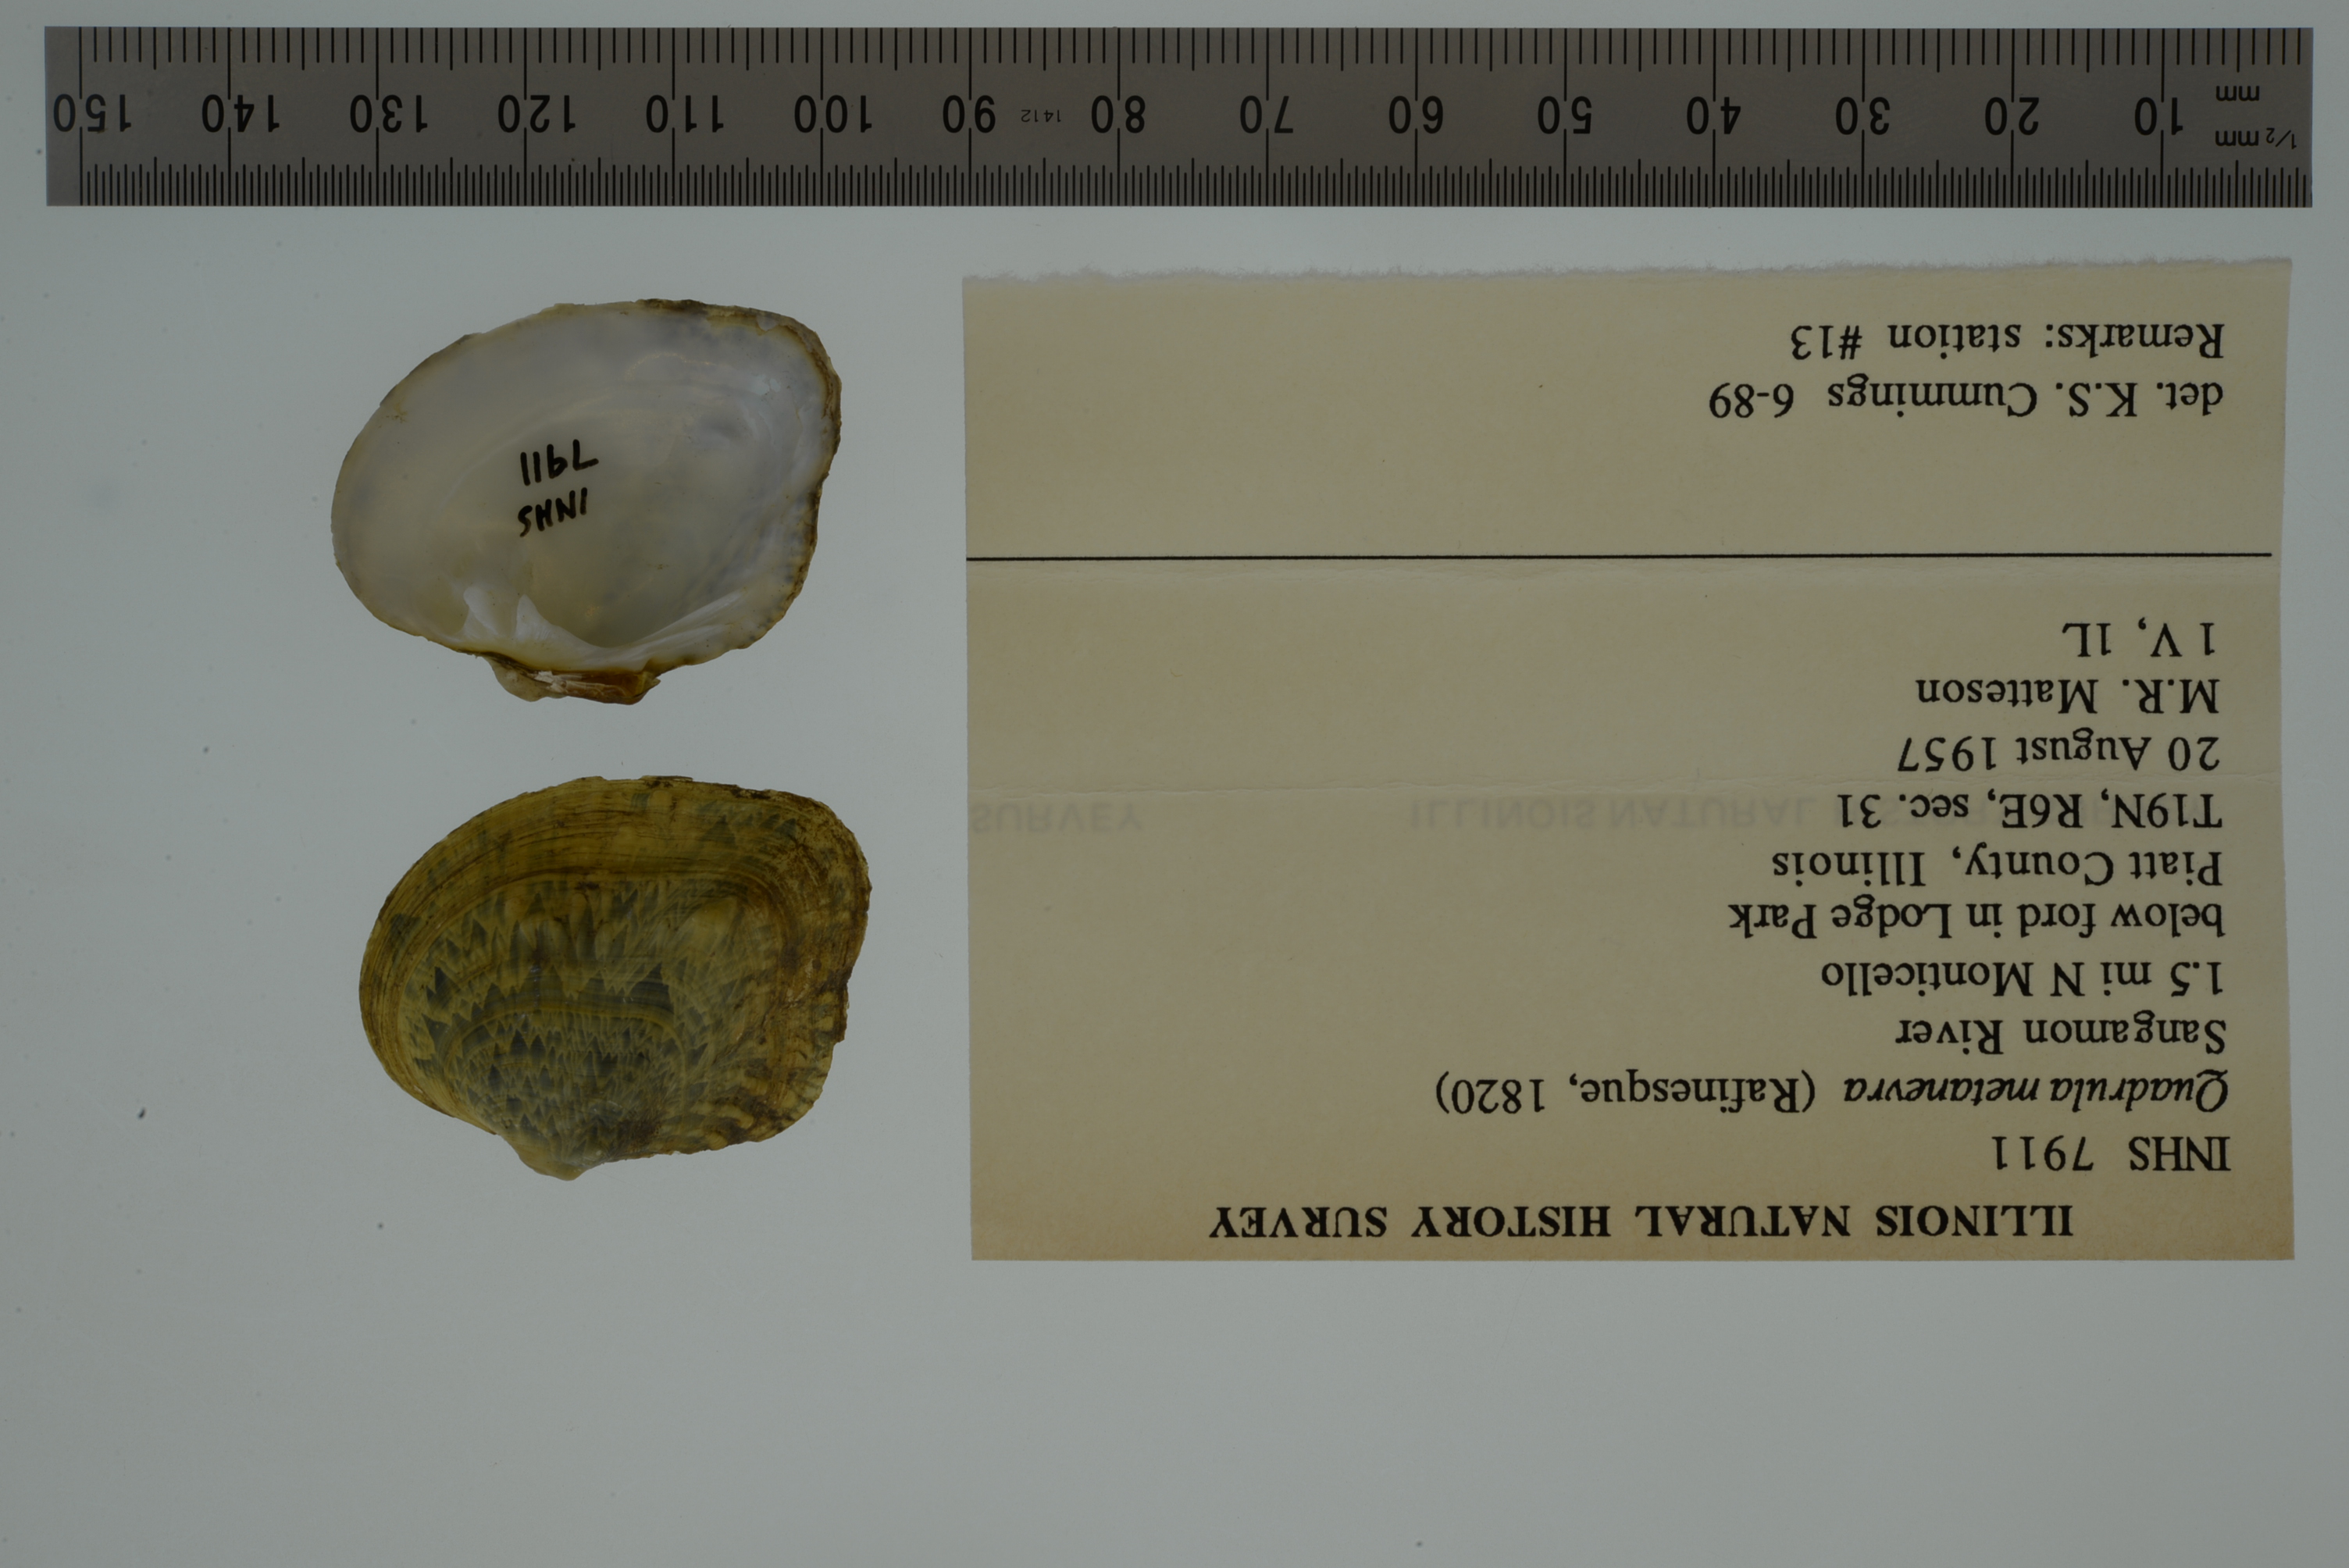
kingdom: Animalia
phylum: Mollusca
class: Bivalvia
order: Unionida
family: Unionidae
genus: Theliderma
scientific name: Theliderma metanevra
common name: Monkeyface
